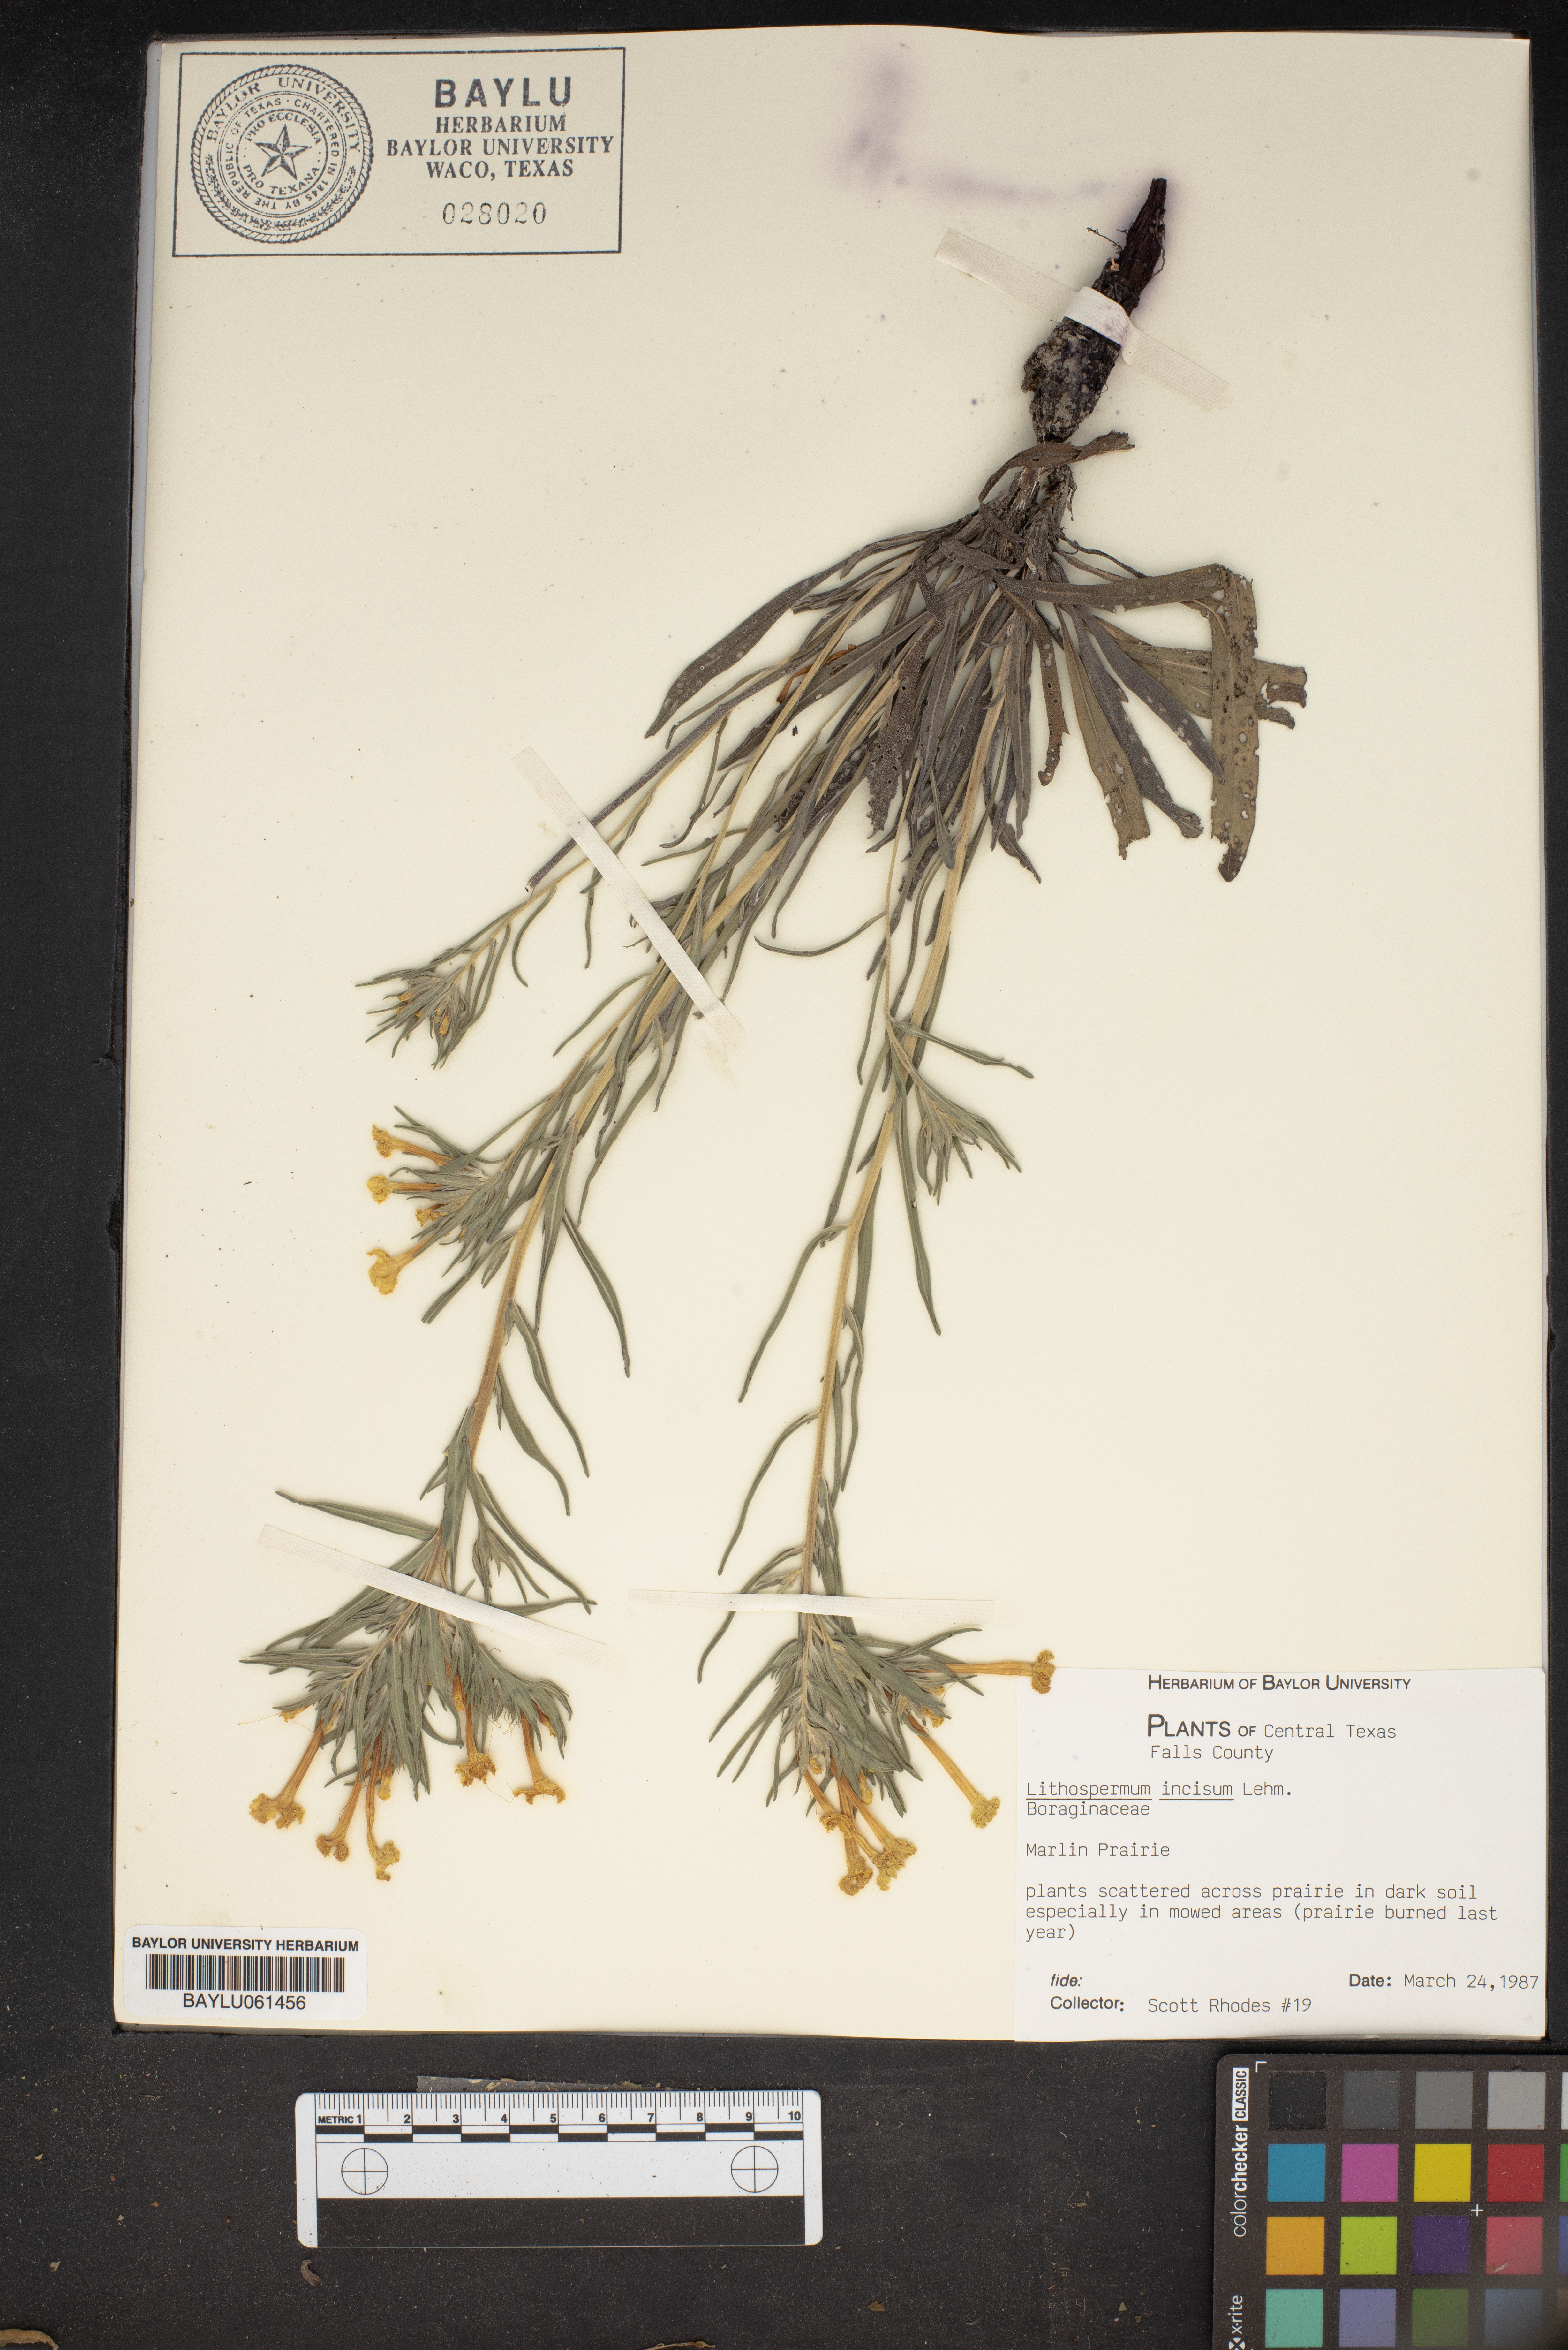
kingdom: Plantae
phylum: Tracheophyta
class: Magnoliopsida
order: Boraginales
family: Boraginaceae
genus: Lithospermum
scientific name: Lithospermum incisum
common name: Fringed gromwell
